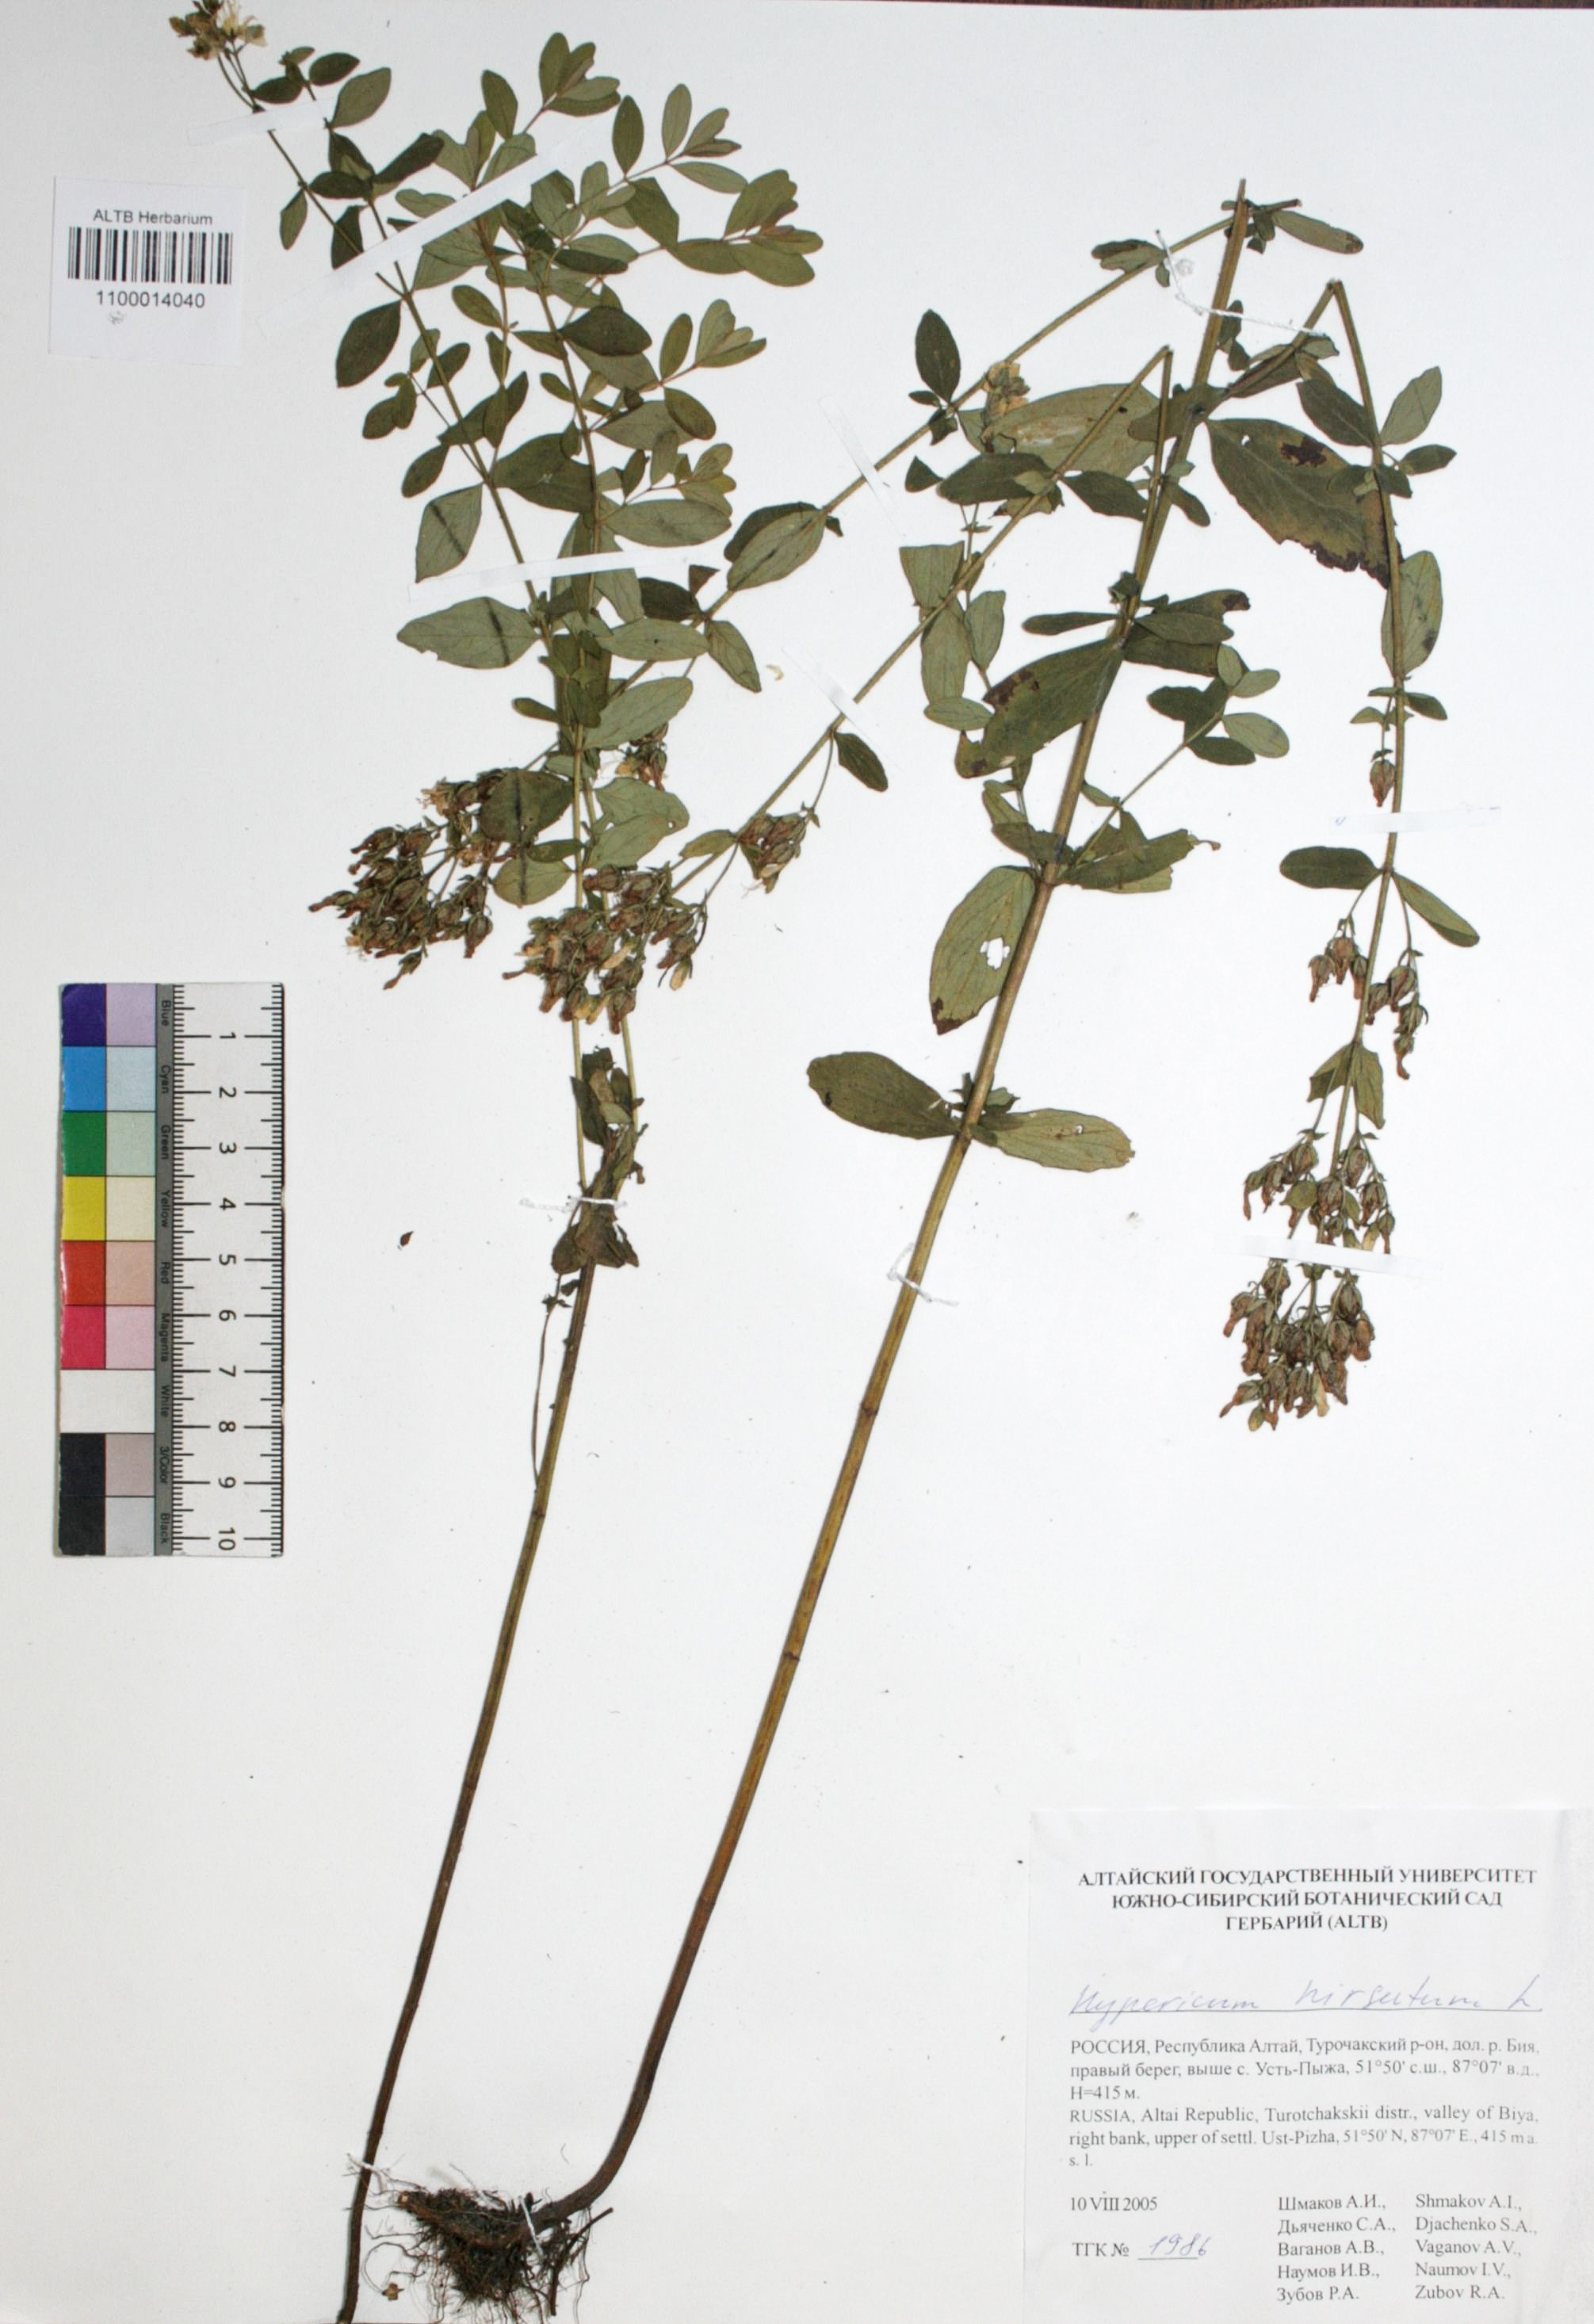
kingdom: Plantae
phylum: Tracheophyta
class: Magnoliopsida
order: Malpighiales
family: Hypericaceae
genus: Hypericum
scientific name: Hypericum hirsutum
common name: Hairy st. john's-wort
